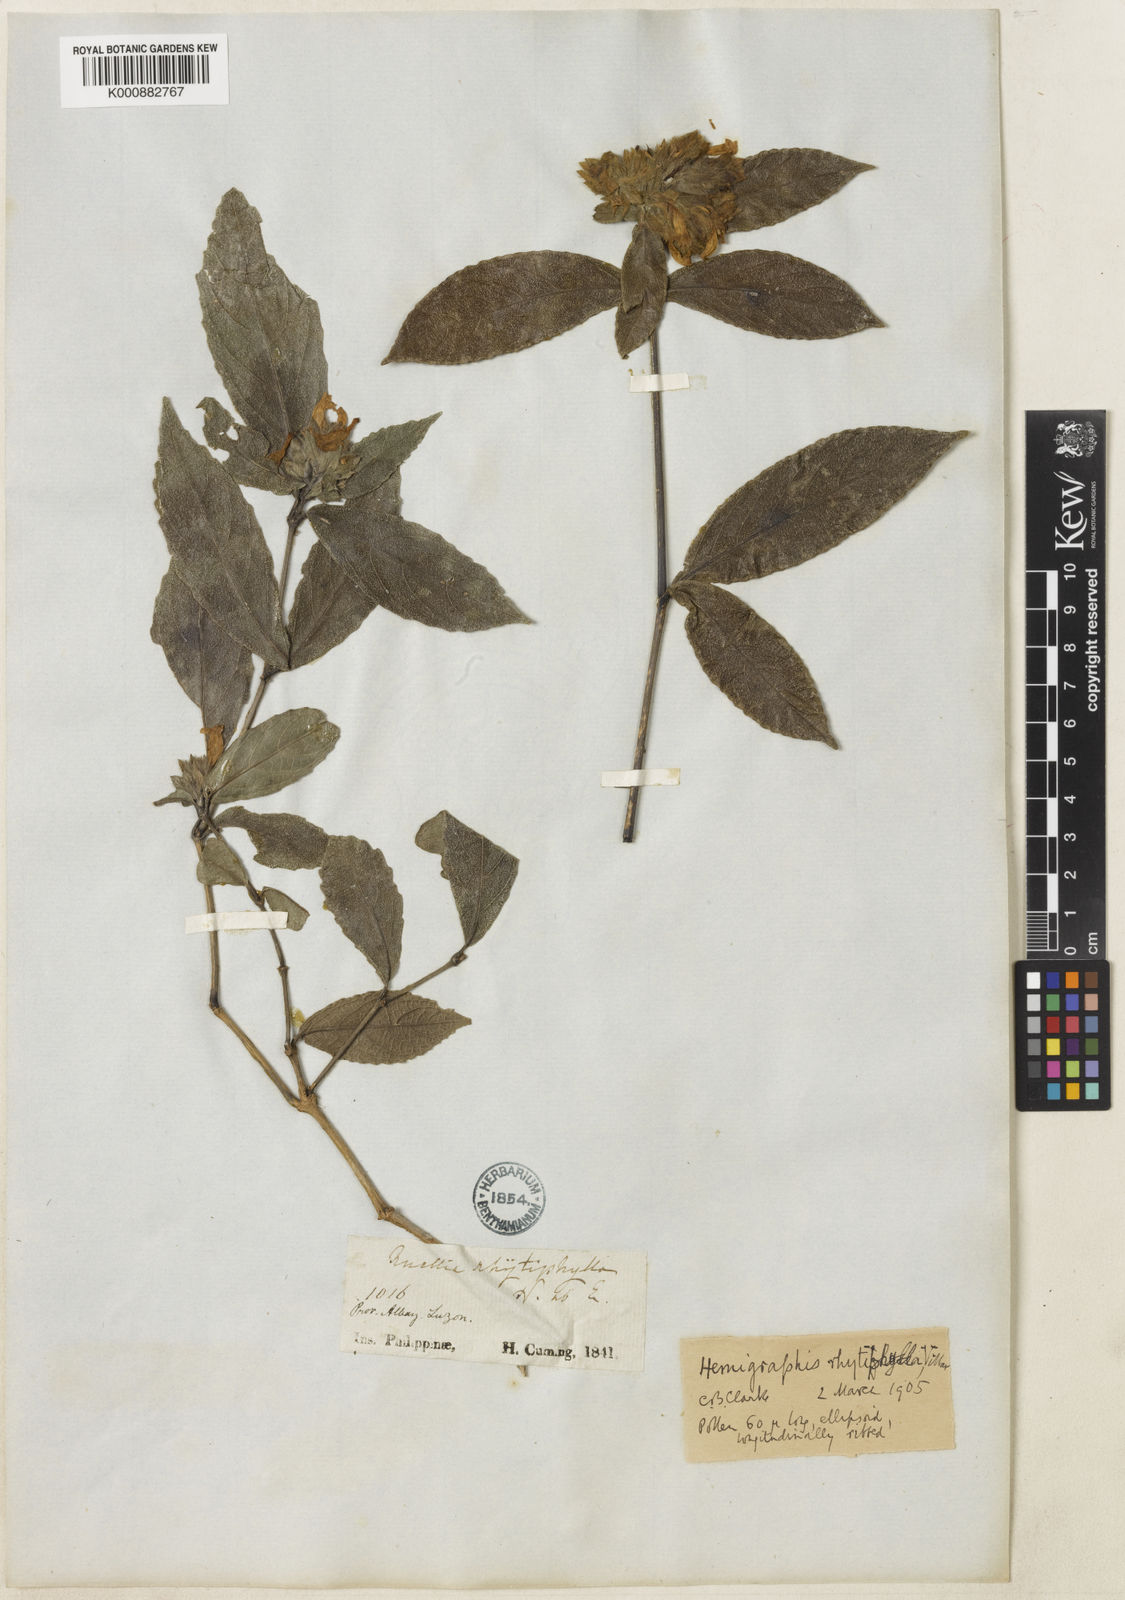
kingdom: Plantae
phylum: Tracheophyta
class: Magnoliopsida
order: Lamiales
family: Acanthaceae
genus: Strobilanthes
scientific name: Strobilanthes rhytiphylla
